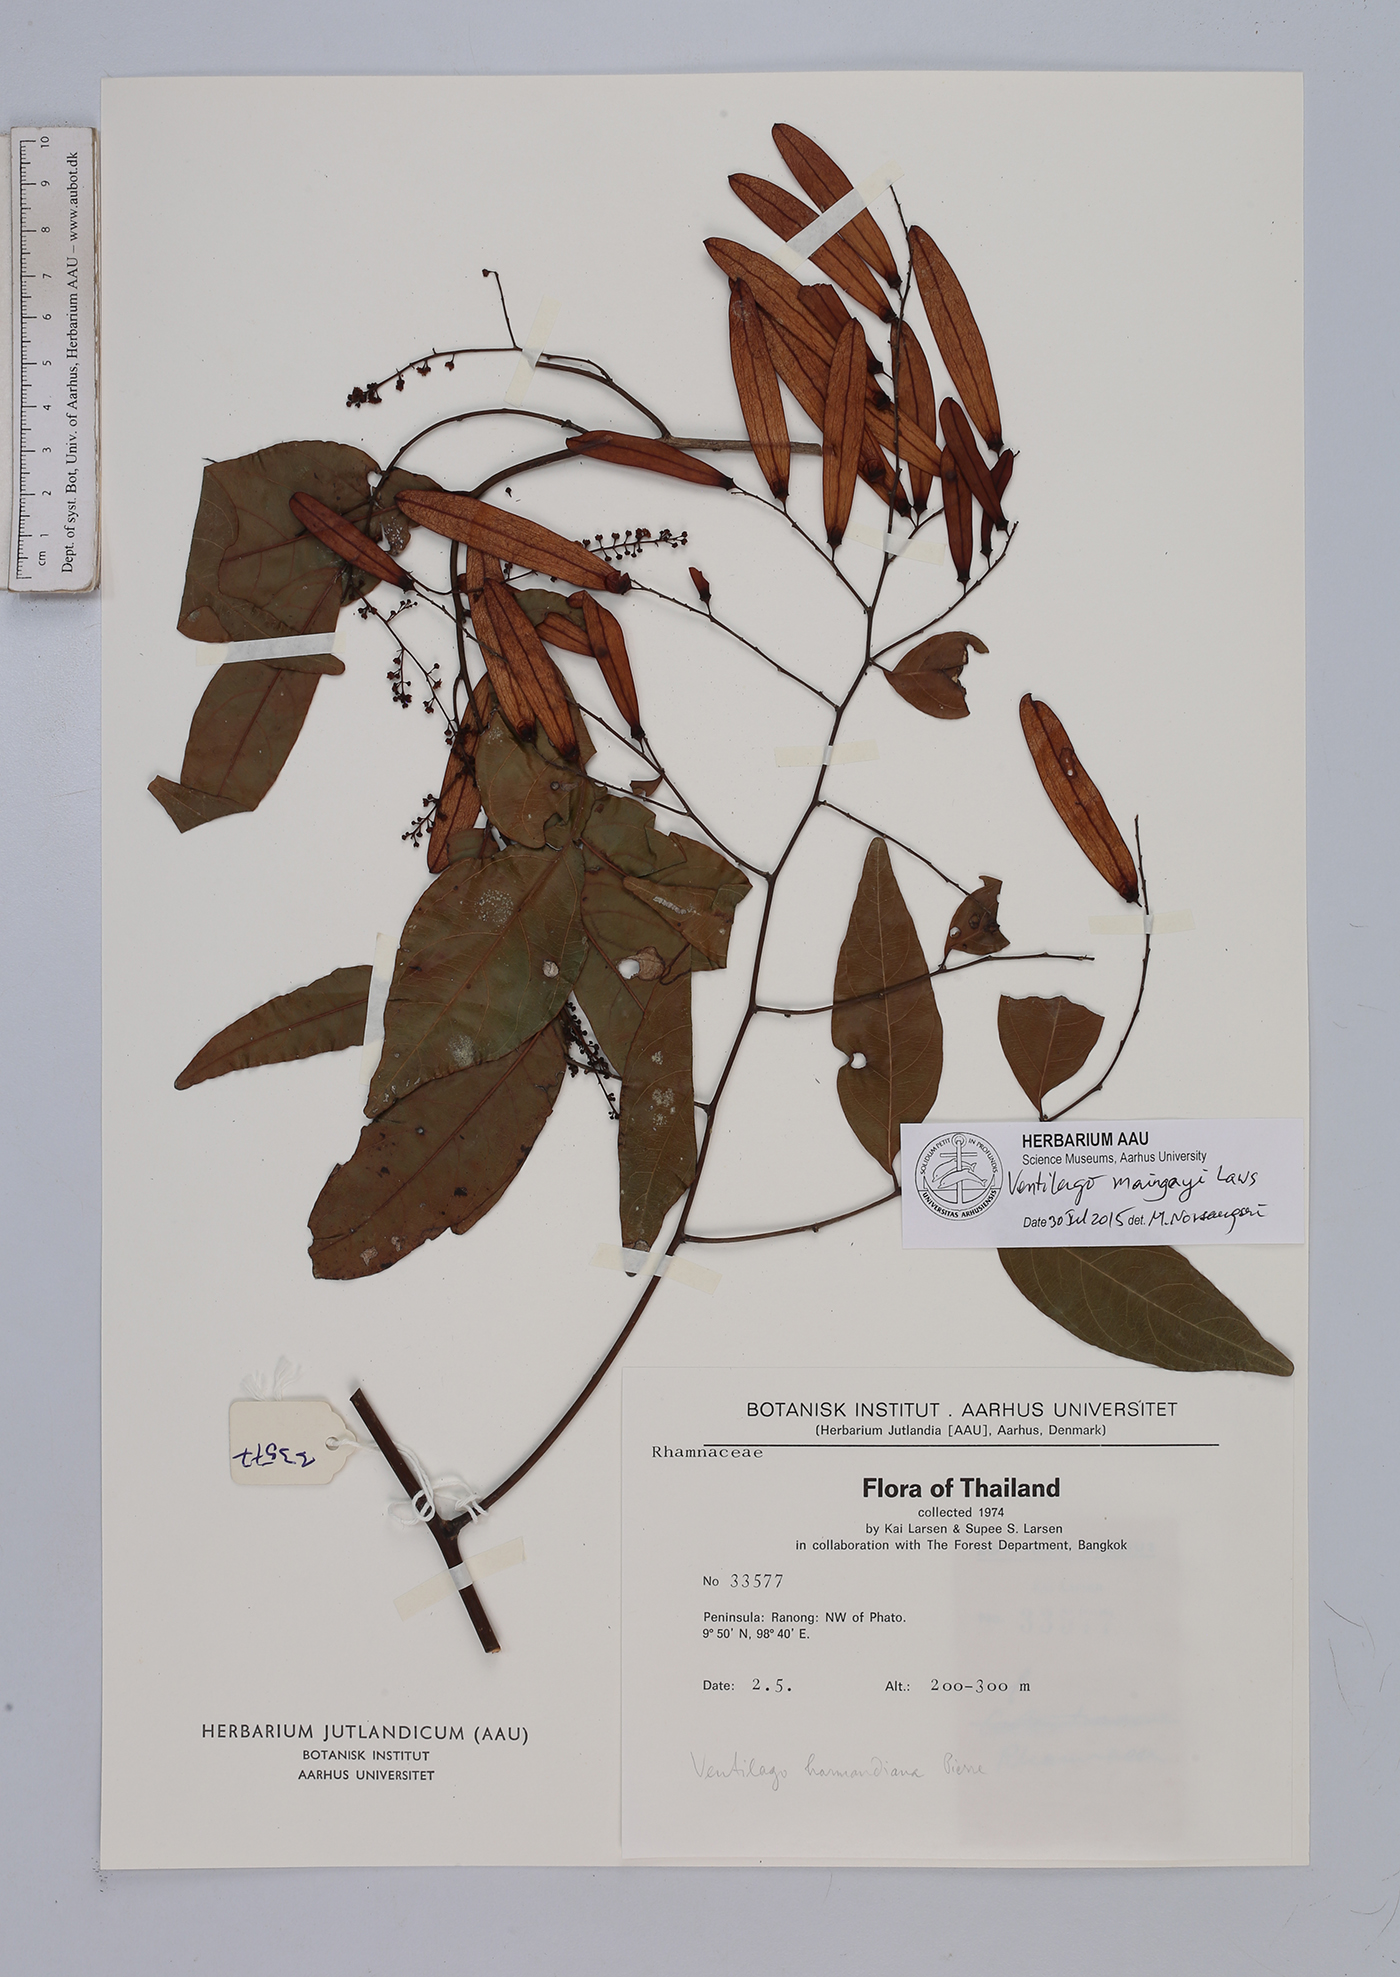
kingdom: Plantae
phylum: Tracheophyta
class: Magnoliopsida
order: Rosales
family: Rhamnaceae
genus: Ventilago
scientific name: Ventilago maingayi
